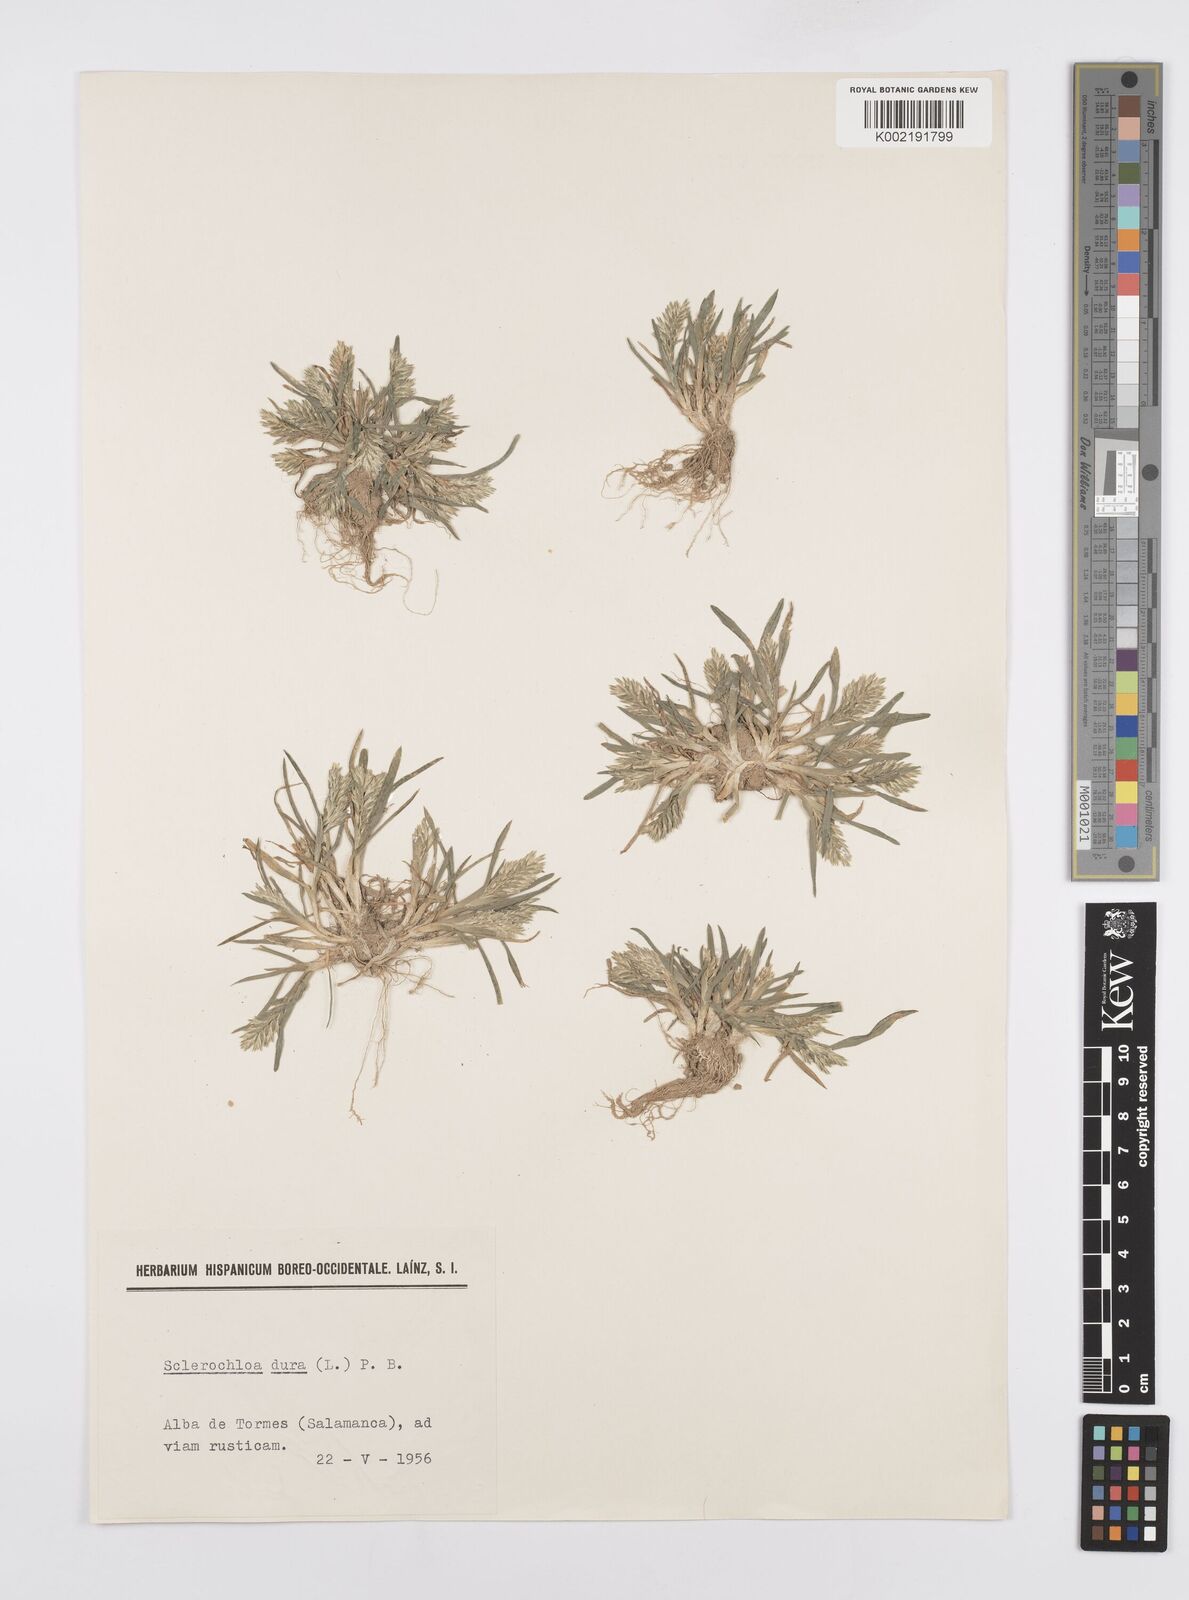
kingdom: Plantae
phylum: Tracheophyta
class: Liliopsida
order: Poales
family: Poaceae
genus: Sclerochloa
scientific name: Sclerochloa dura
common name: Common hardgrass
